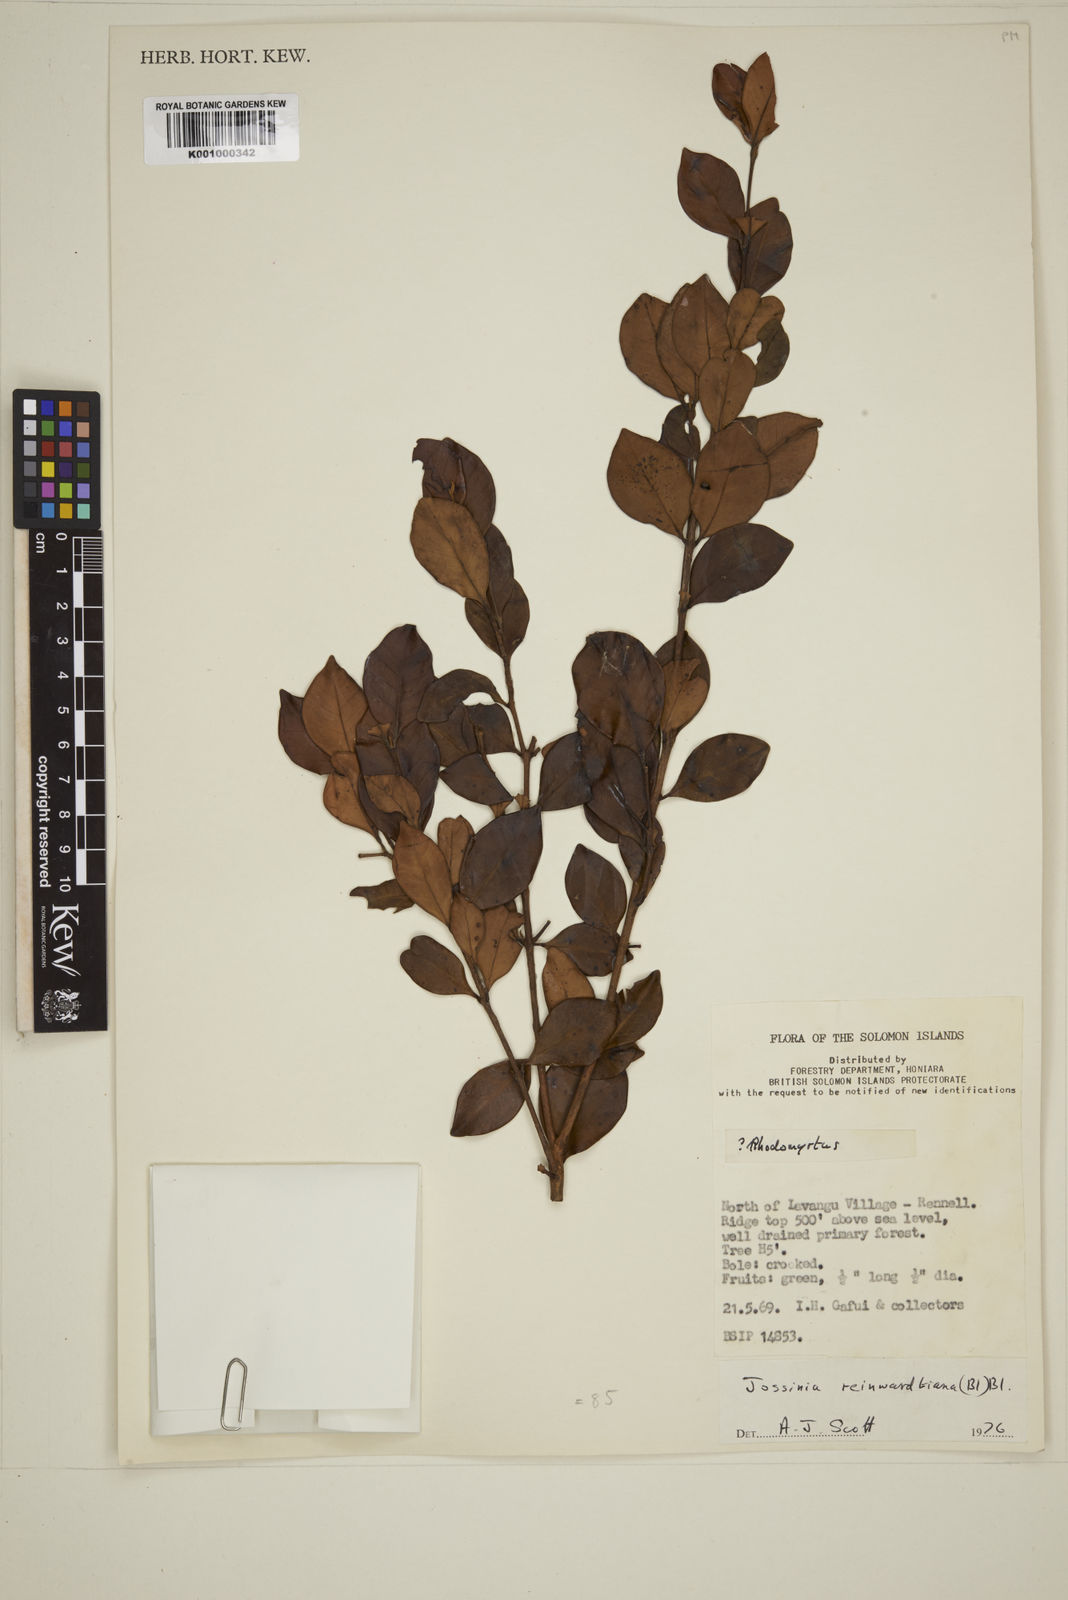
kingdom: Plantae
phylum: Tracheophyta
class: Magnoliopsida
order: Myrtales
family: Myrtaceae
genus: Eugenia
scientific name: Eugenia reinwardtiana
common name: Cedar bay-cherry
